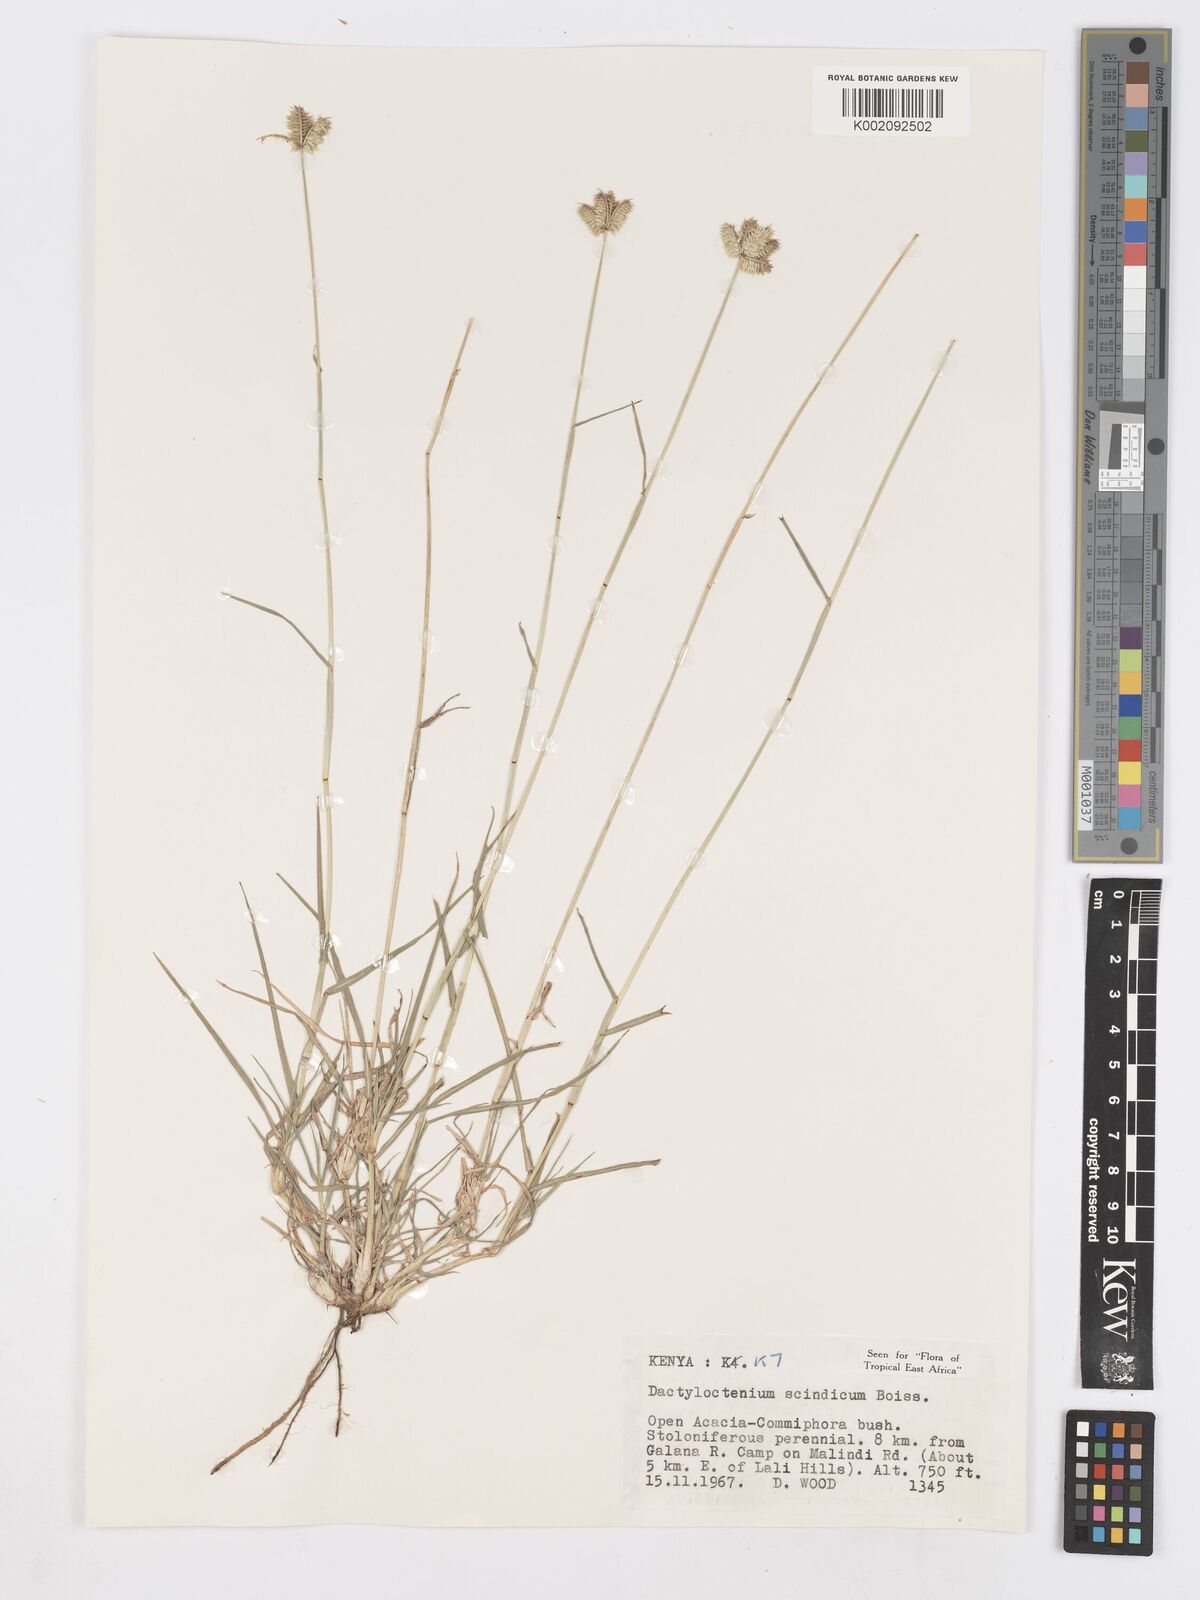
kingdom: Plantae
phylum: Tracheophyta
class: Liliopsida
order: Poales
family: Poaceae
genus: Dactyloctenium
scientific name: Dactyloctenium scindicum
